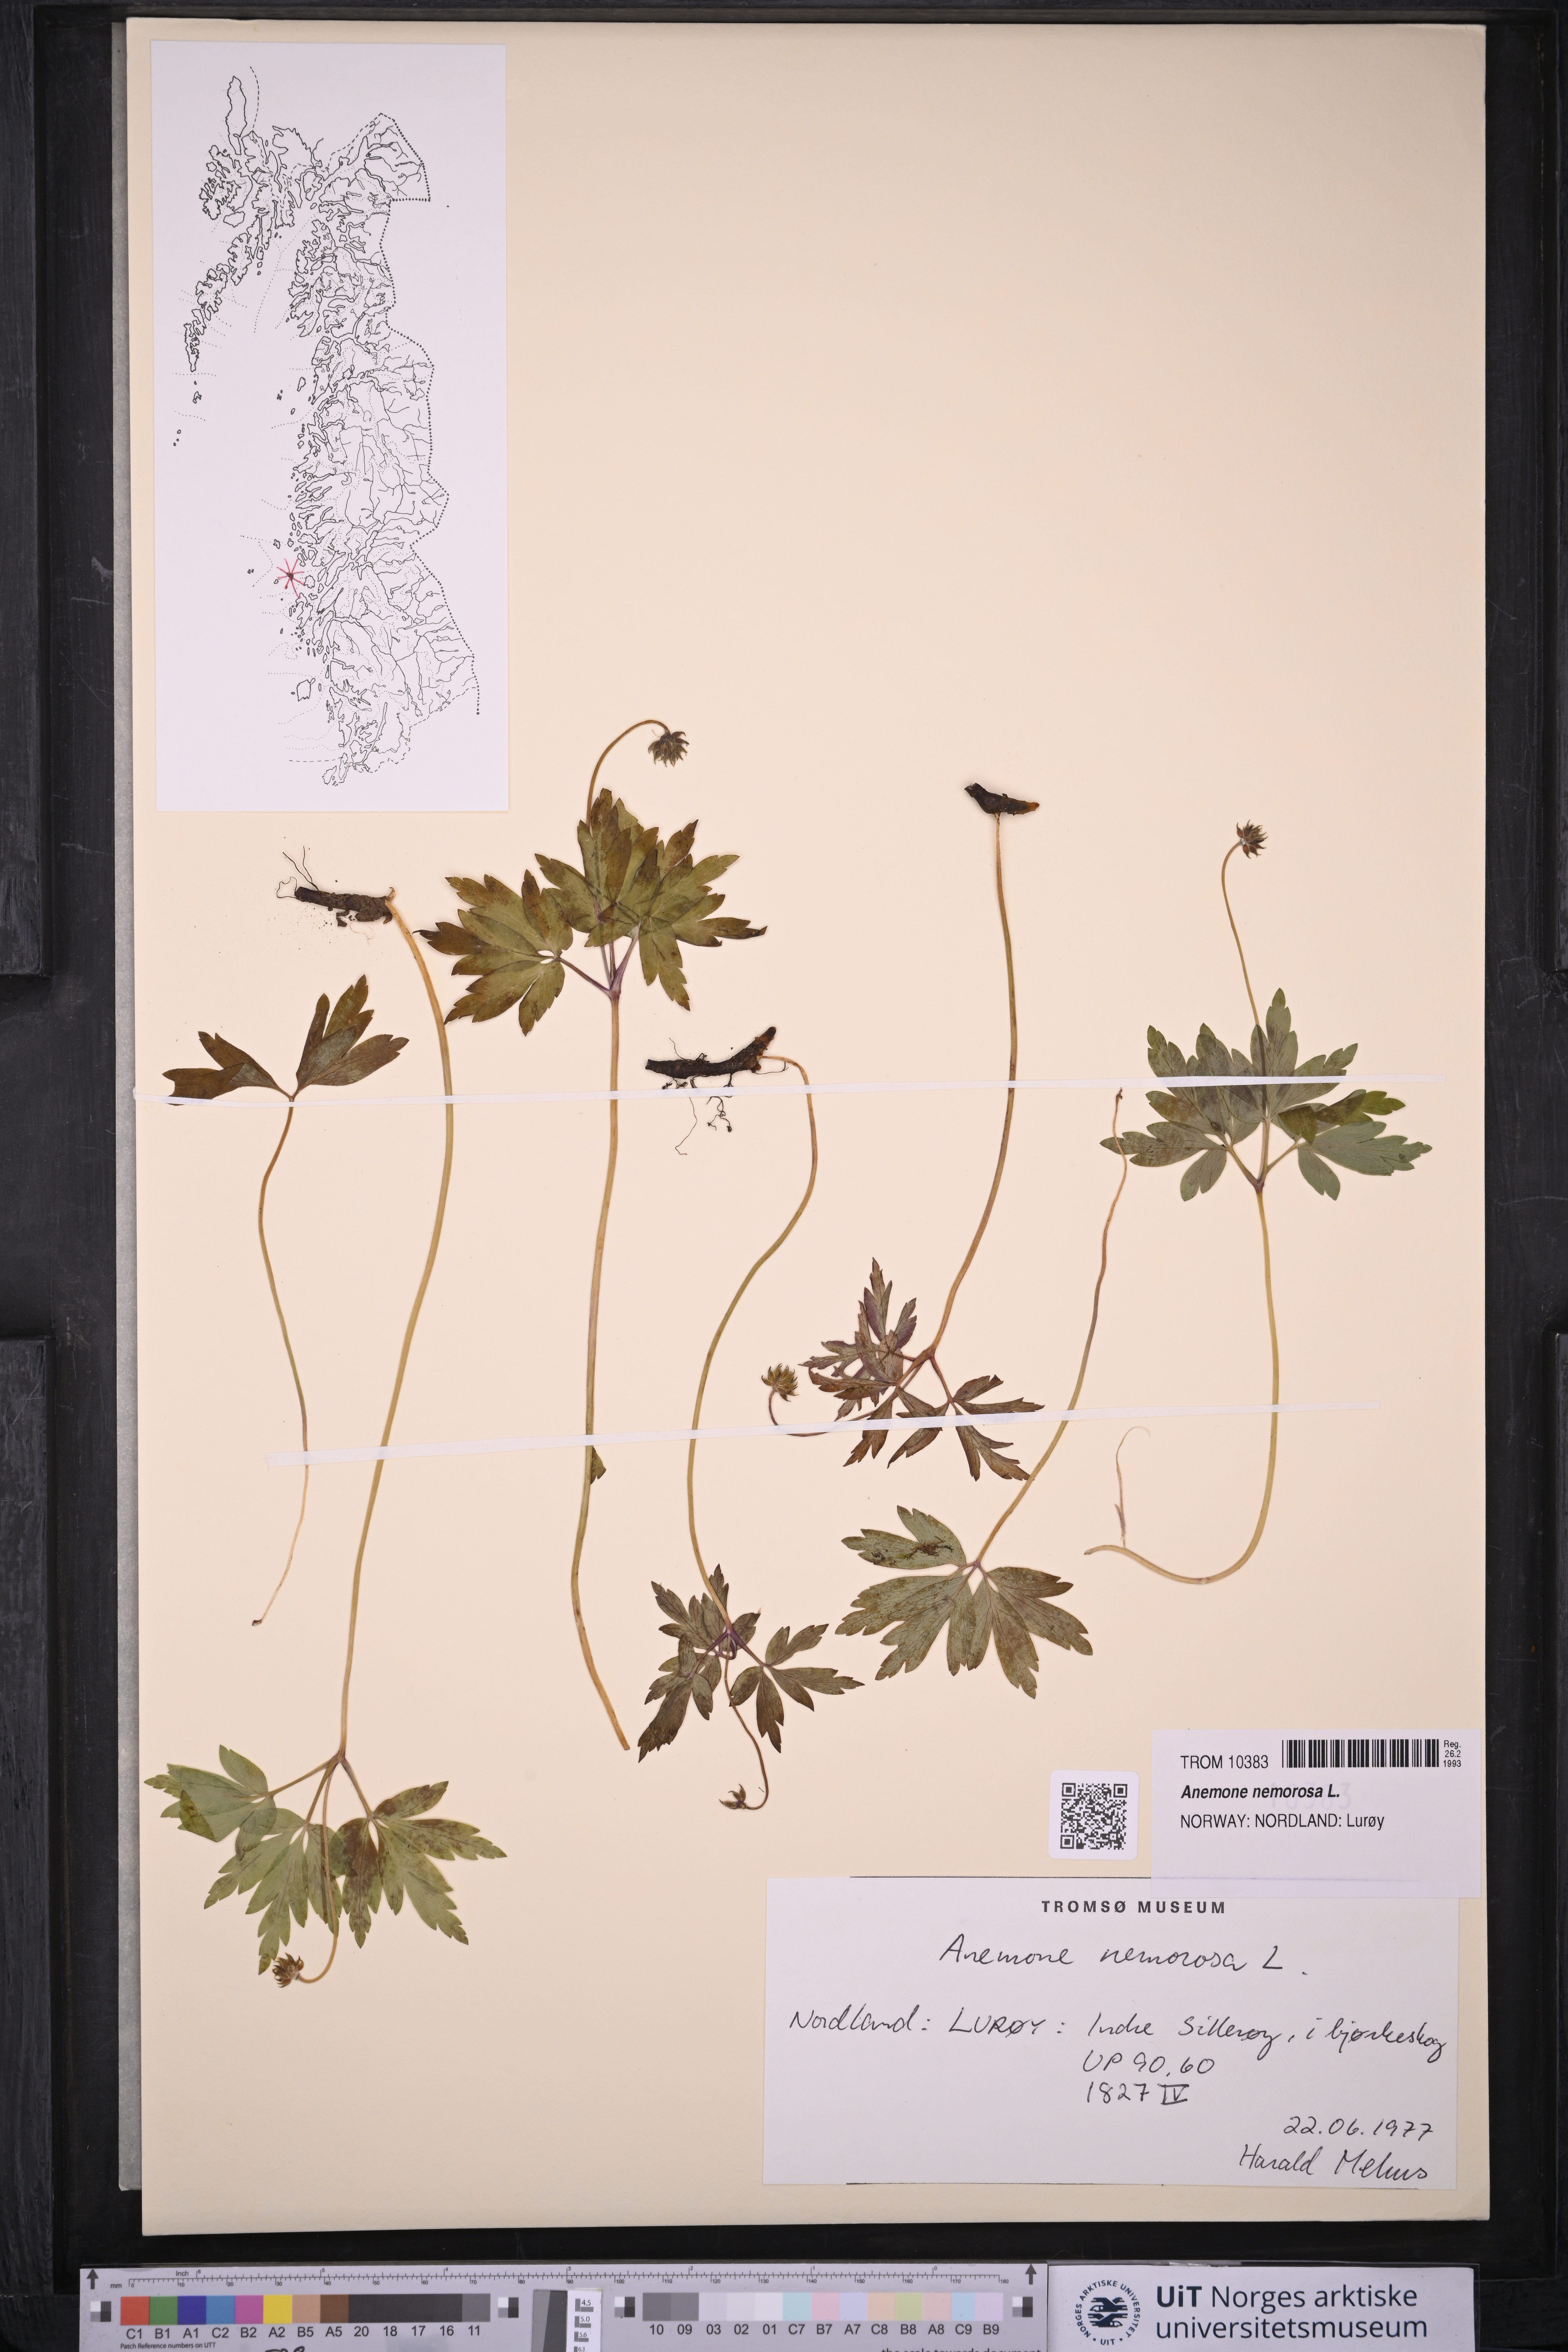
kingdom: Plantae
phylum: Tracheophyta
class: Magnoliopsida
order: Ranunculales
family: Ranunculaceae
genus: Anemone
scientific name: Anemone nemorosa
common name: Wood anemone
